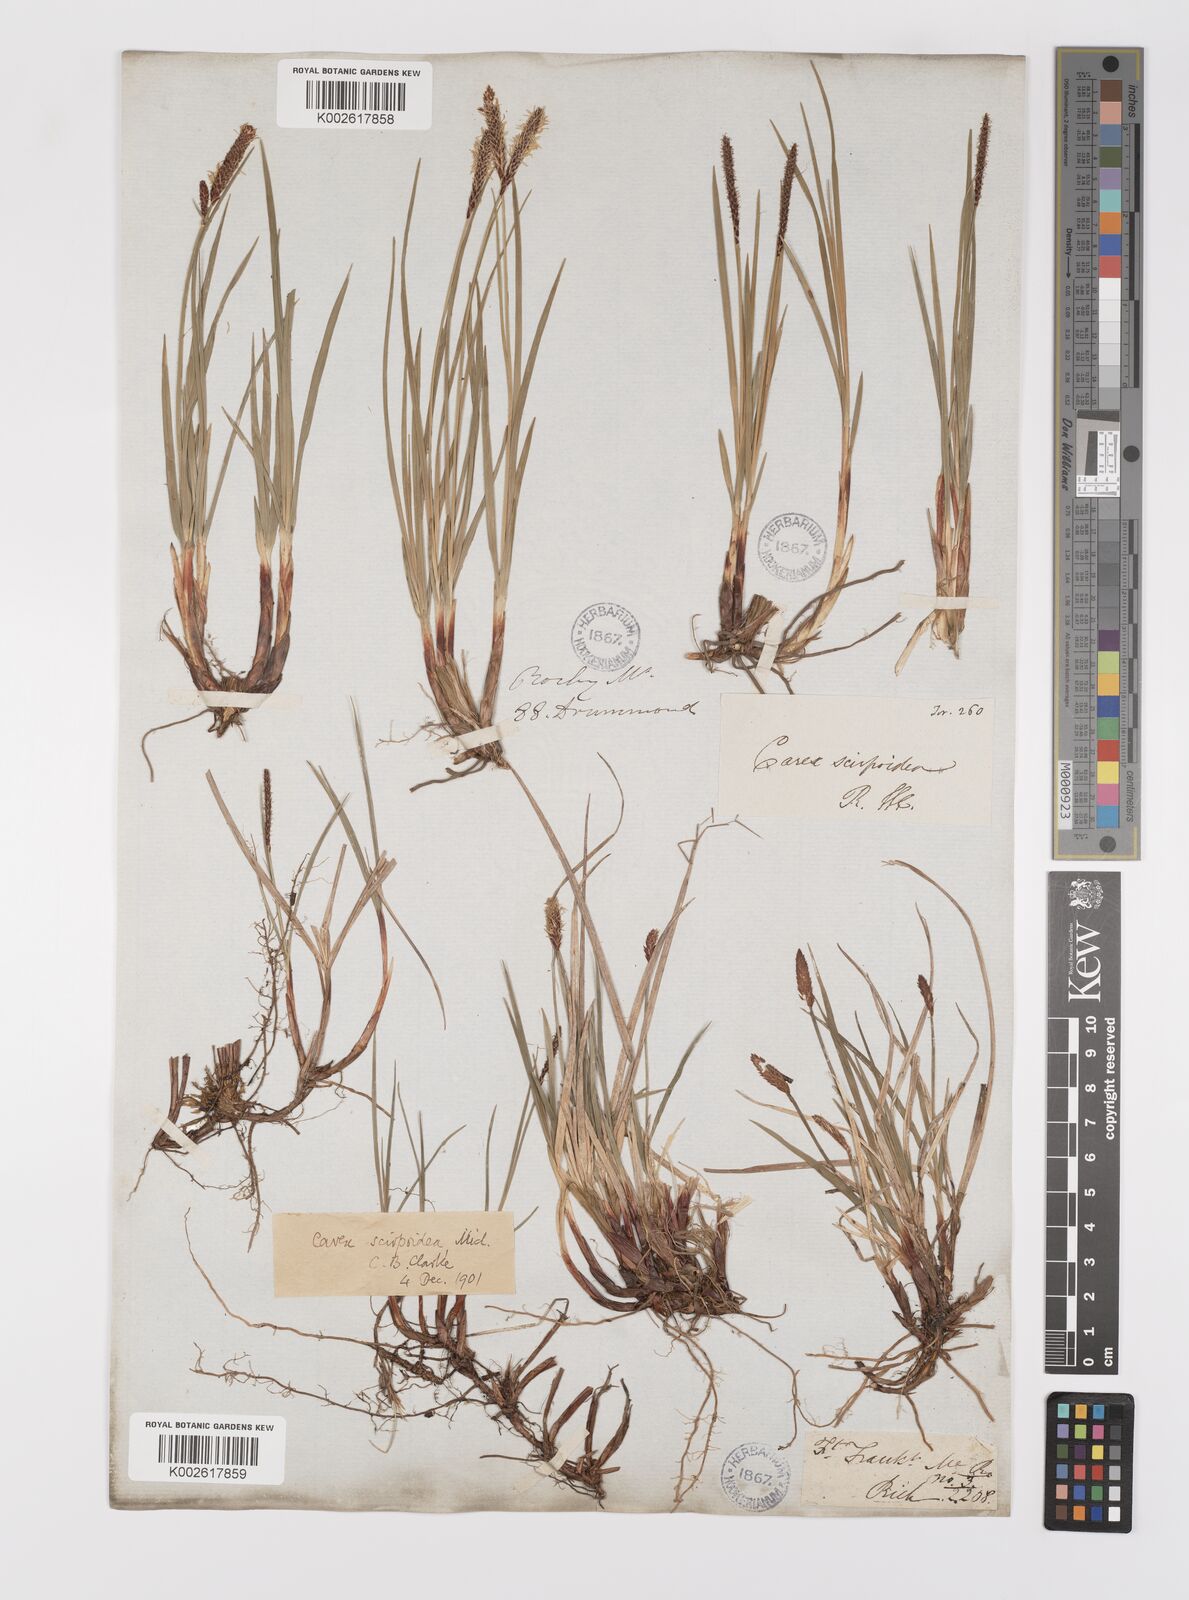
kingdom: Plantae
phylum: Tracheophyta
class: Liliopsida
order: Poales
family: Cyperaceae
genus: Carex
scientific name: Carex scirpoidea
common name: Canada single-spike sedge
